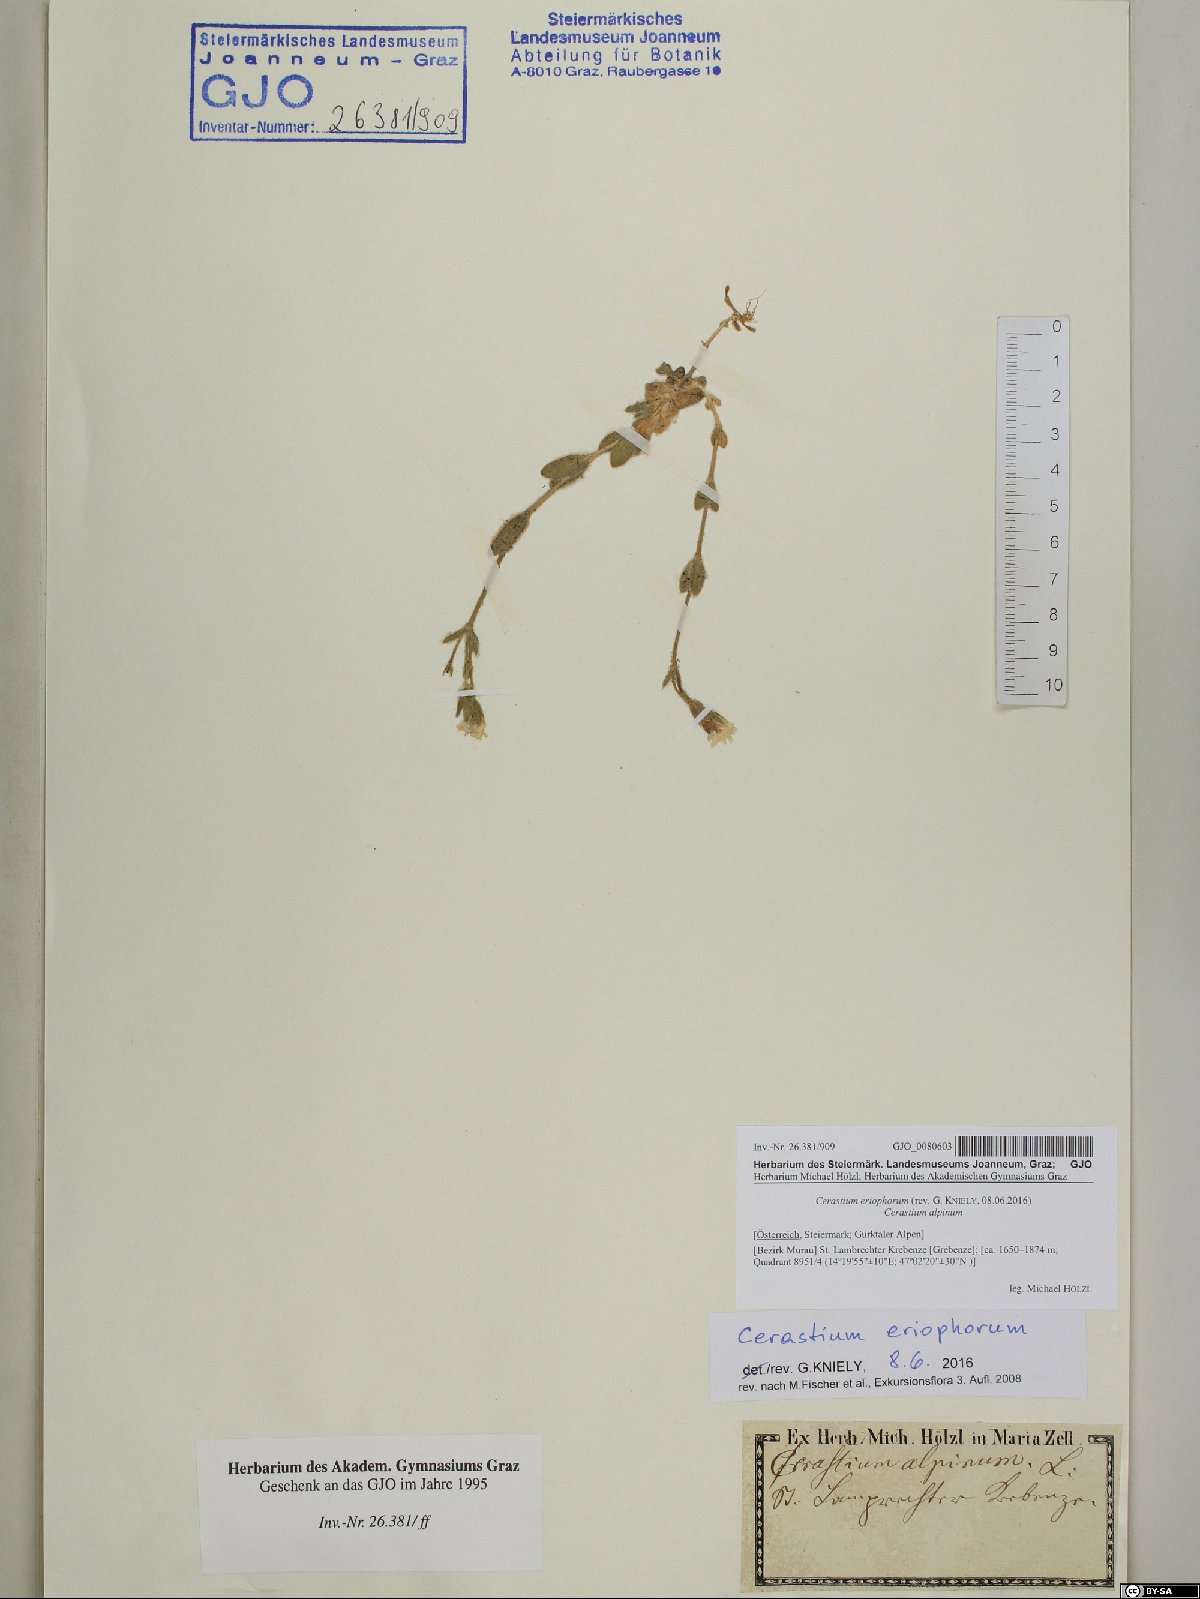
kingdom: Plantae
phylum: Tracheophyta
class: Magnoliopsida
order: Caryophyllales
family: Caryophyllaceae
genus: Cerastium
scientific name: Cerastium eriophorum
